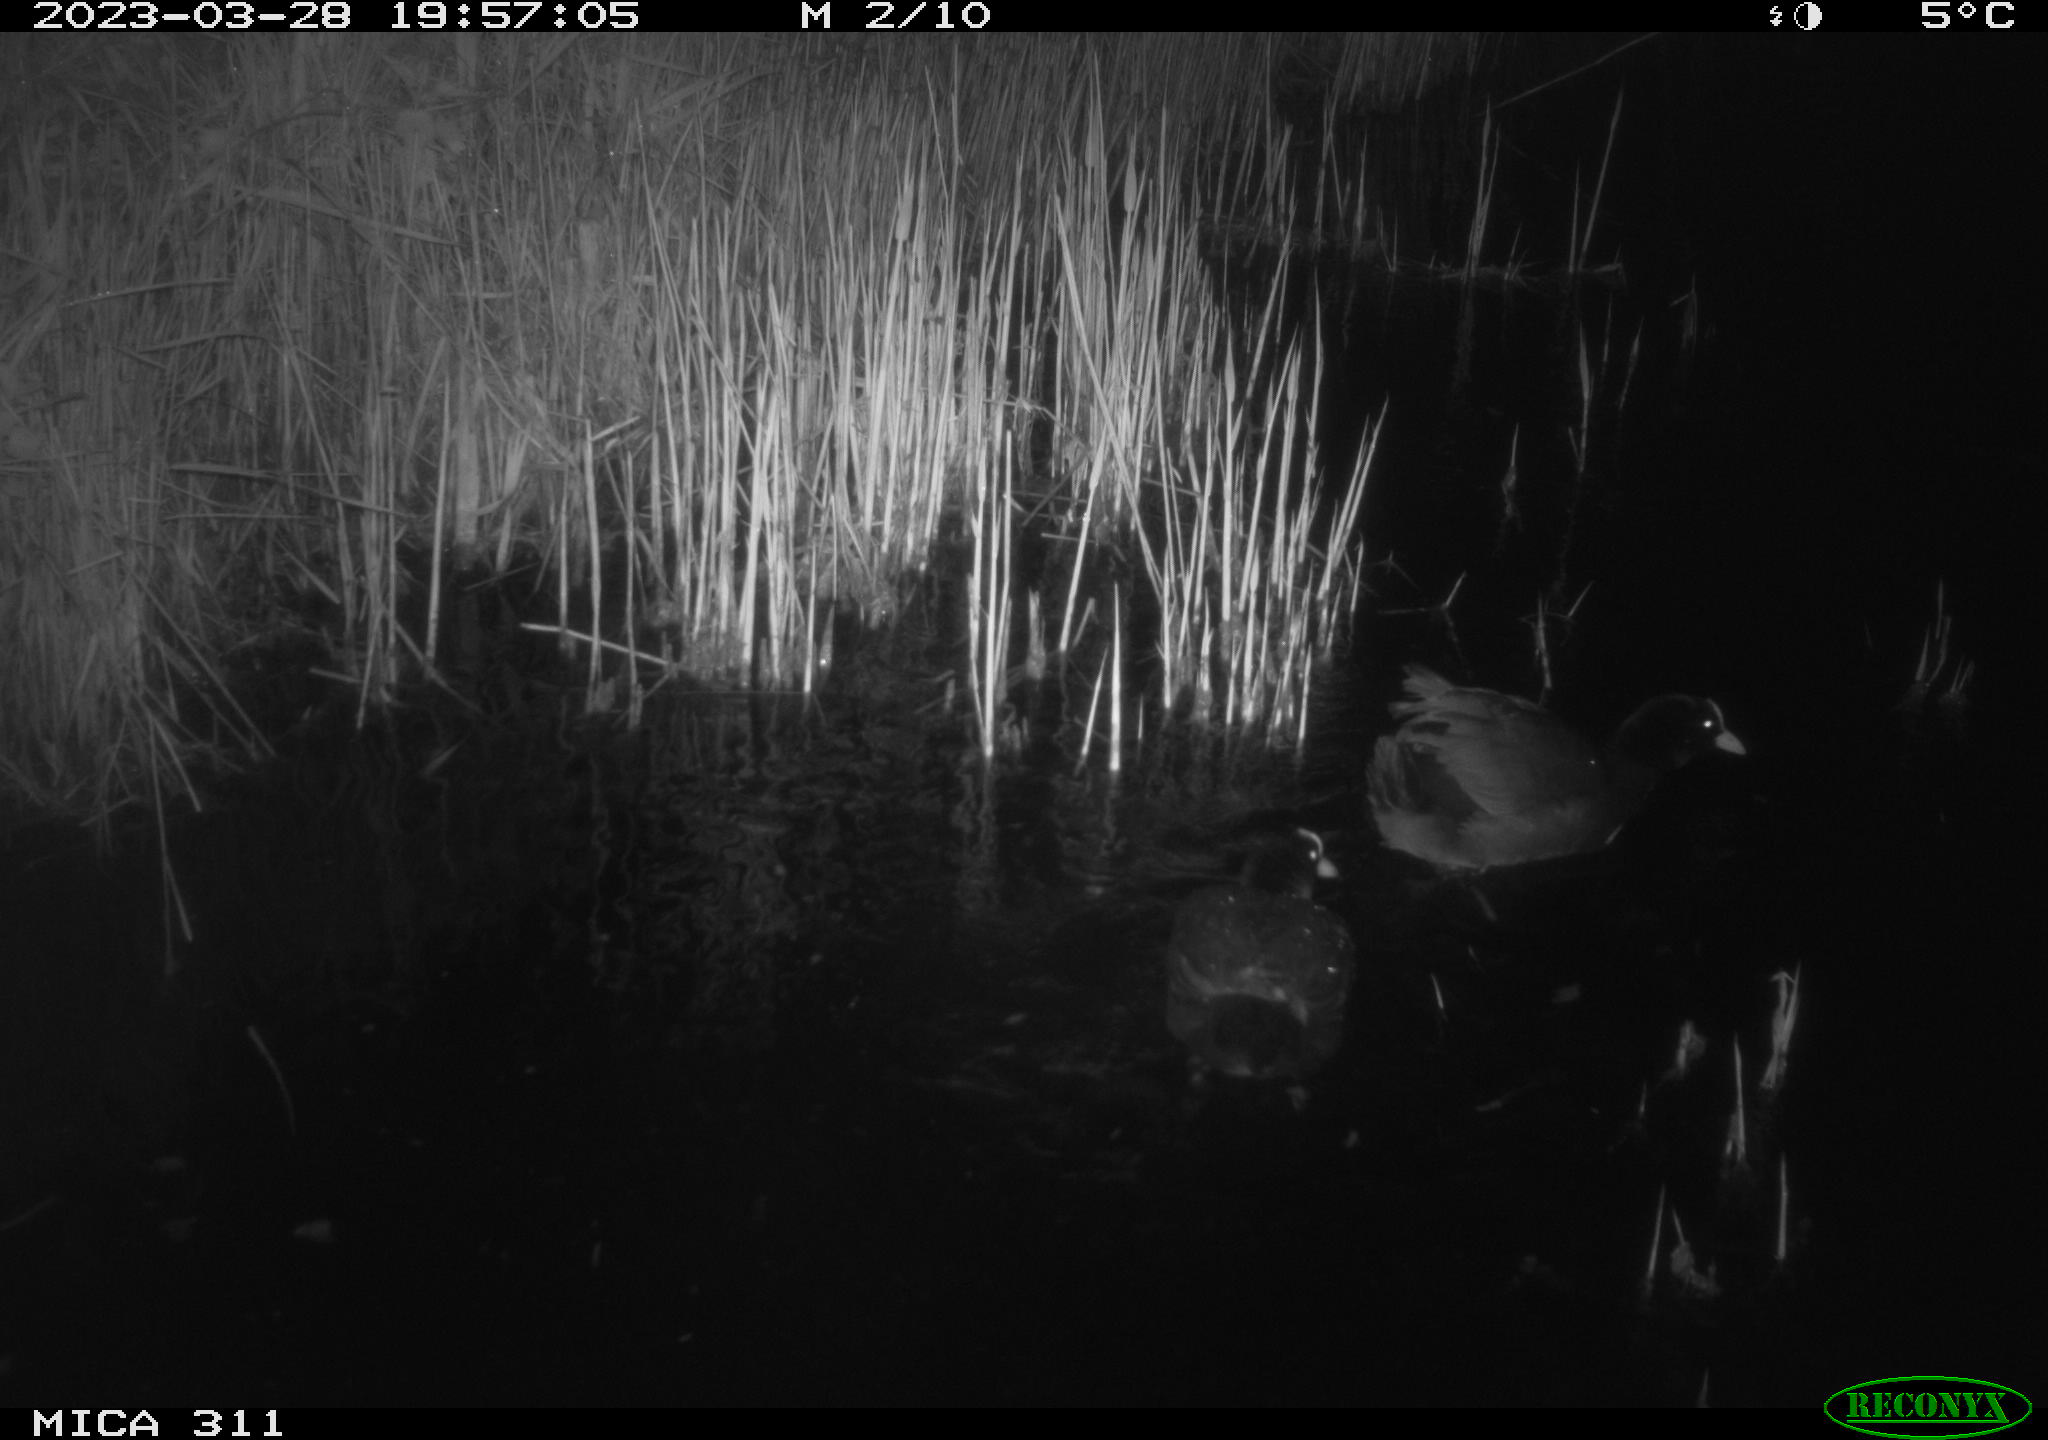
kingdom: Animalia
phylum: Chordata
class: Aves
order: Gruiformes
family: Rallidae
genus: Fulica
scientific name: Fulica atra
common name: Eurasian coot
